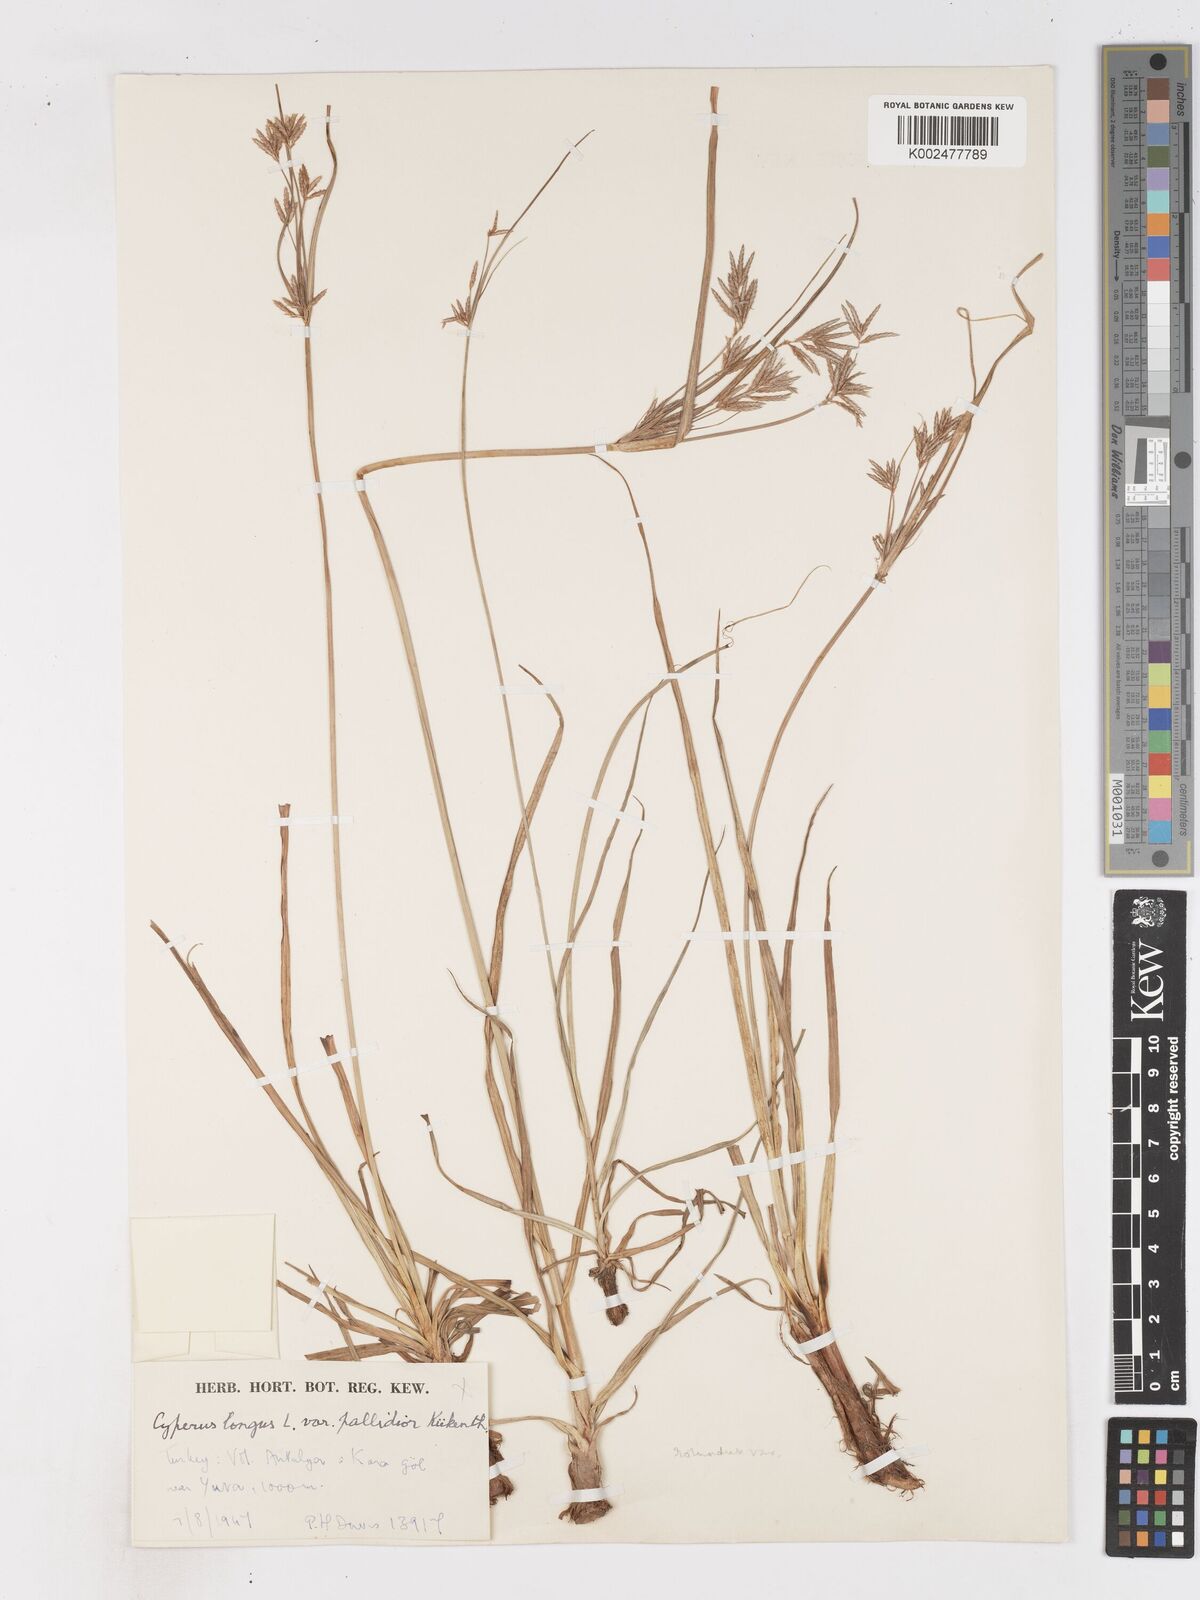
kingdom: Plantae
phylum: Tracheophyta
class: Liliopsida
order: Poales
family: Cyperaceae
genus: Cyperus
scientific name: Cyperus longus
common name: Galingale
